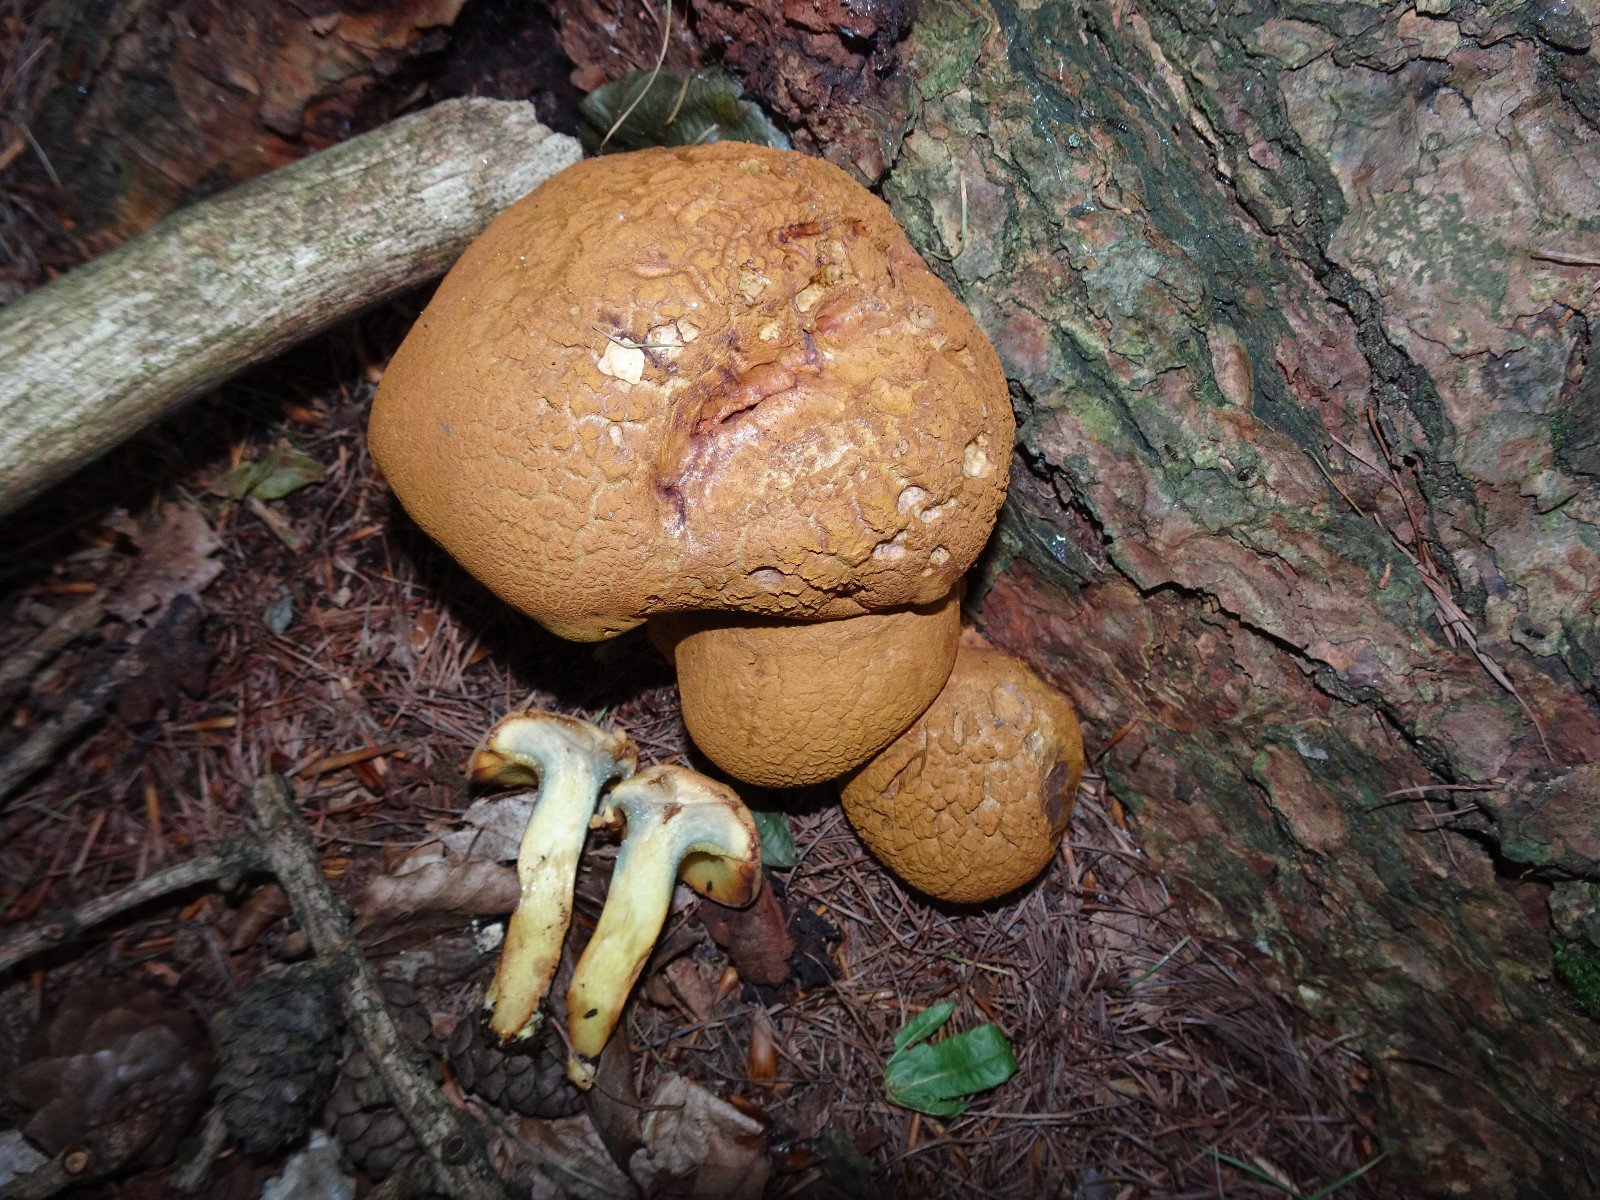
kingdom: Fungi
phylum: Basidiomycota
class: Agaricomycetes
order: Boletales
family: Boletaceae
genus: Buchwaldoboletus
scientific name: Buchwaldoboletus lignicola
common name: stødrørhat
